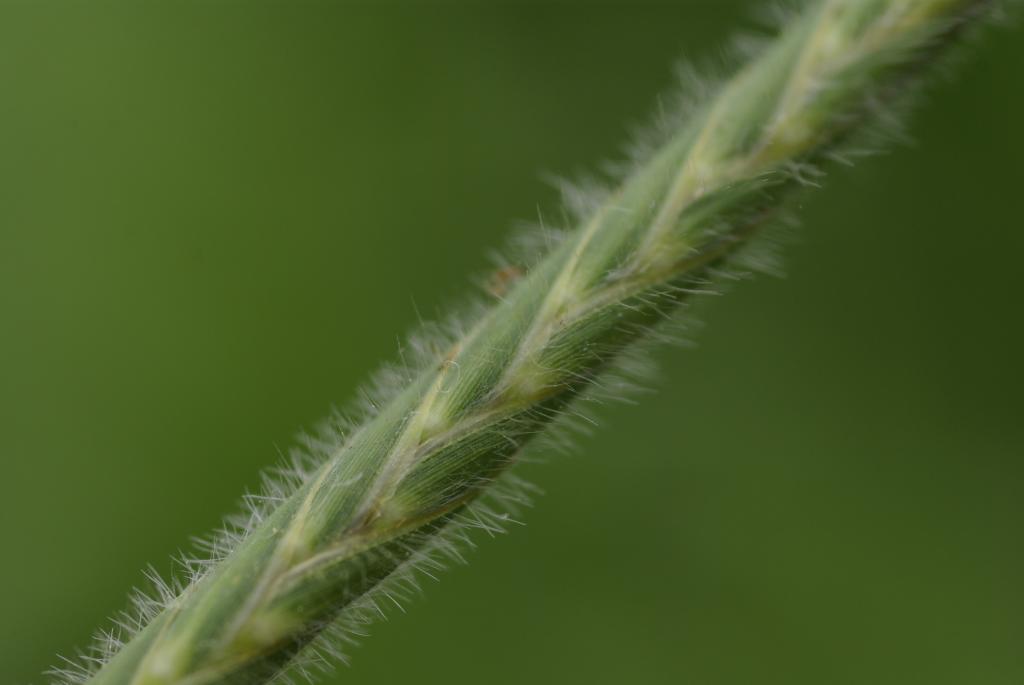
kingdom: Plantae
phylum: Tracheophyta
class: Liliopsida
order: Poales
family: Poaceae
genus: Heteropogon
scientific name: Heteropogon contortus
